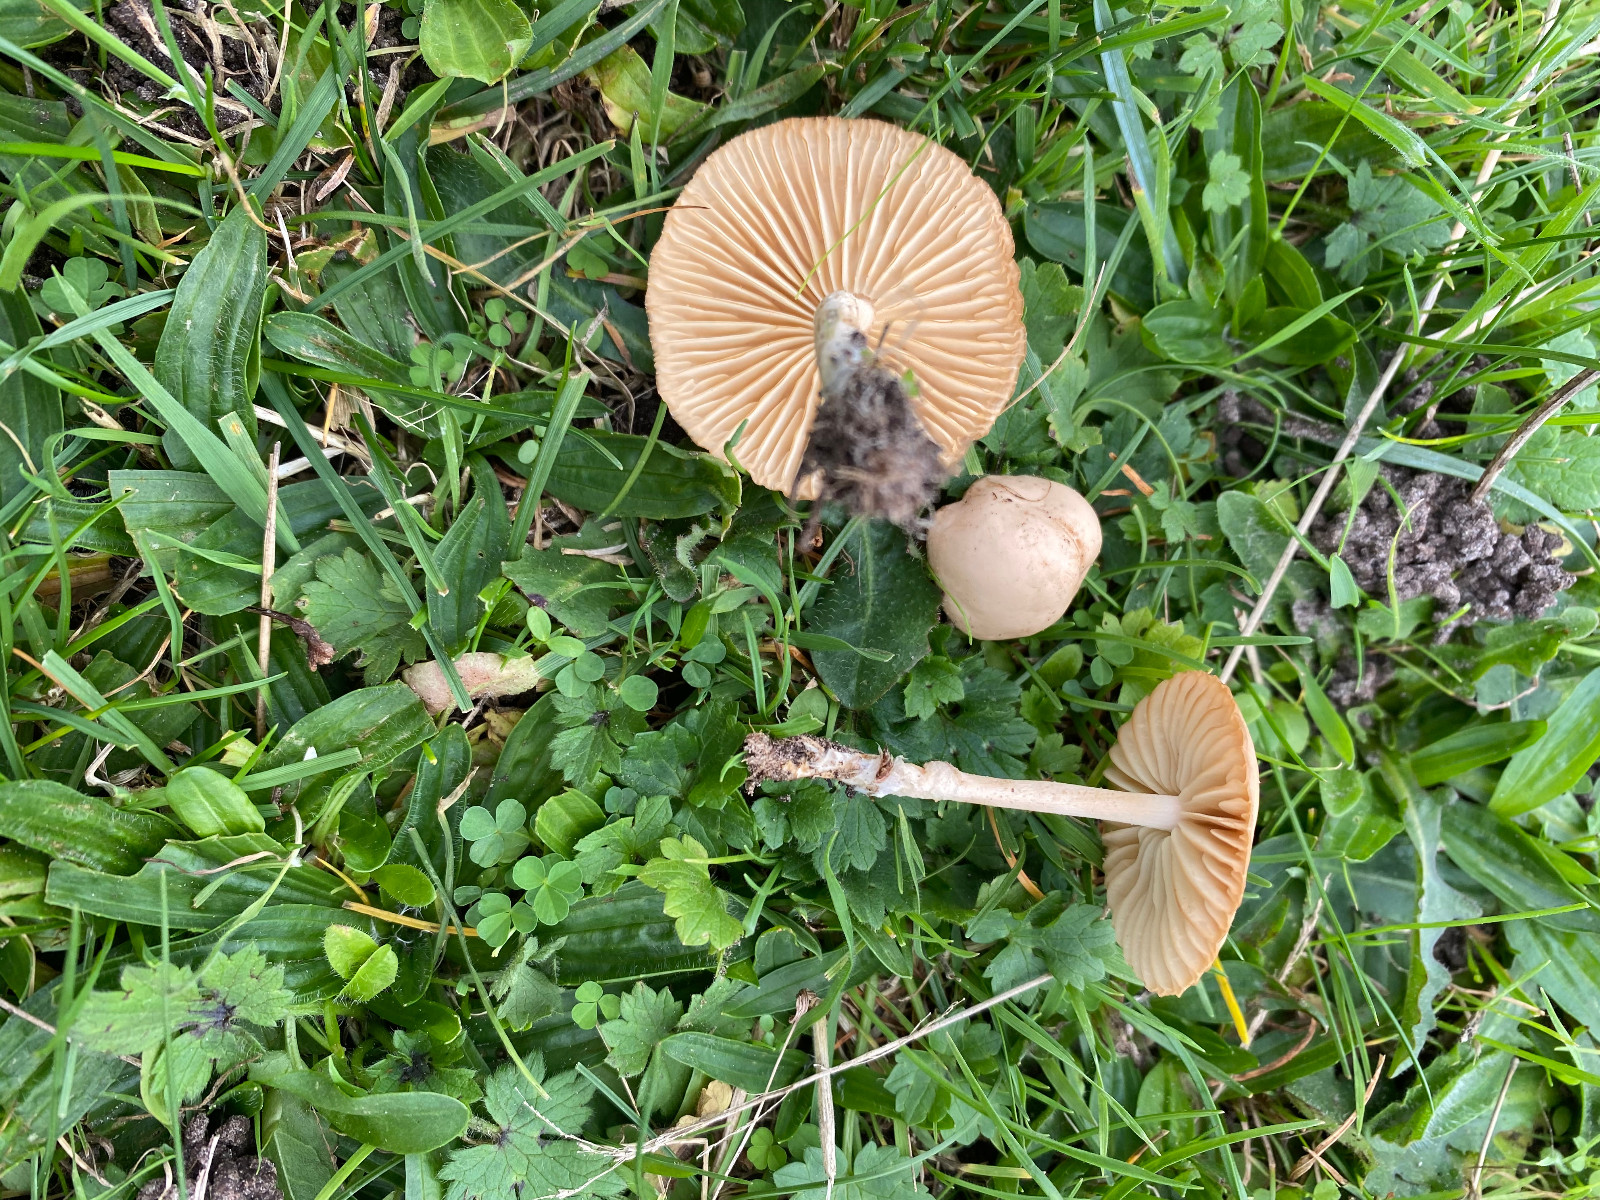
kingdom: Fungi
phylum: Basidiomycota
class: Agaricomycetes
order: Agaricales
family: Marasmiaceae
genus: Marasmius
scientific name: Marasmius oreades
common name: elledans-bruskhat
